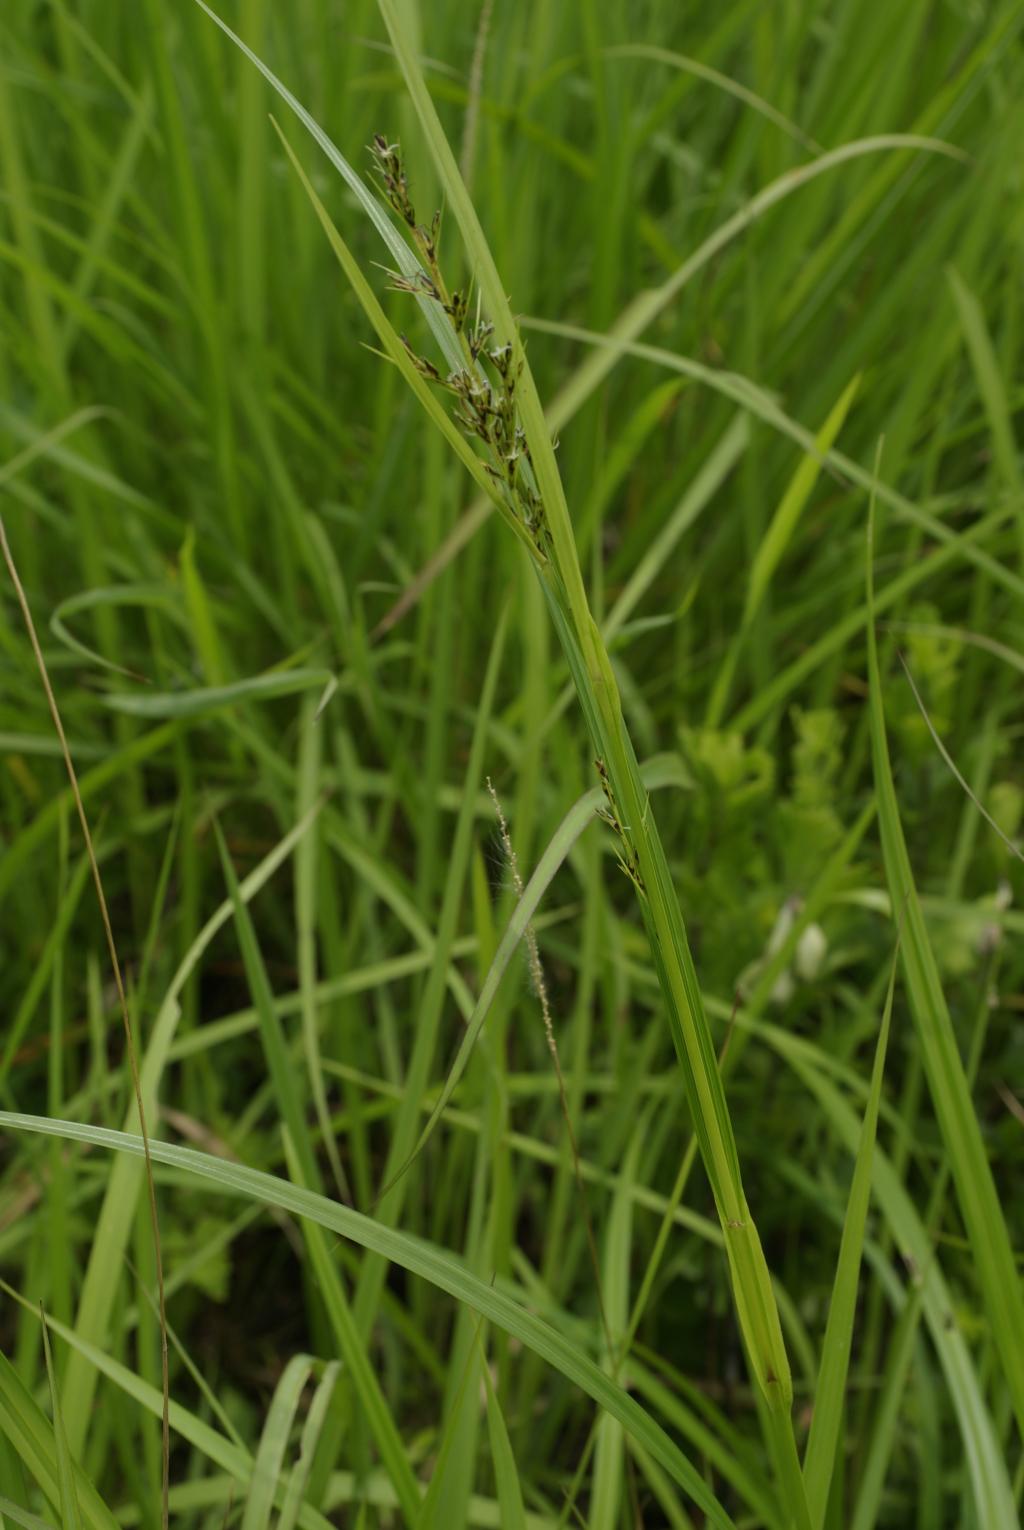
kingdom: Plantae
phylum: Tracheophyta
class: Liliopsida
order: Poales
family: Cyperaceae
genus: Scleria
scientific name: Scleria levis
